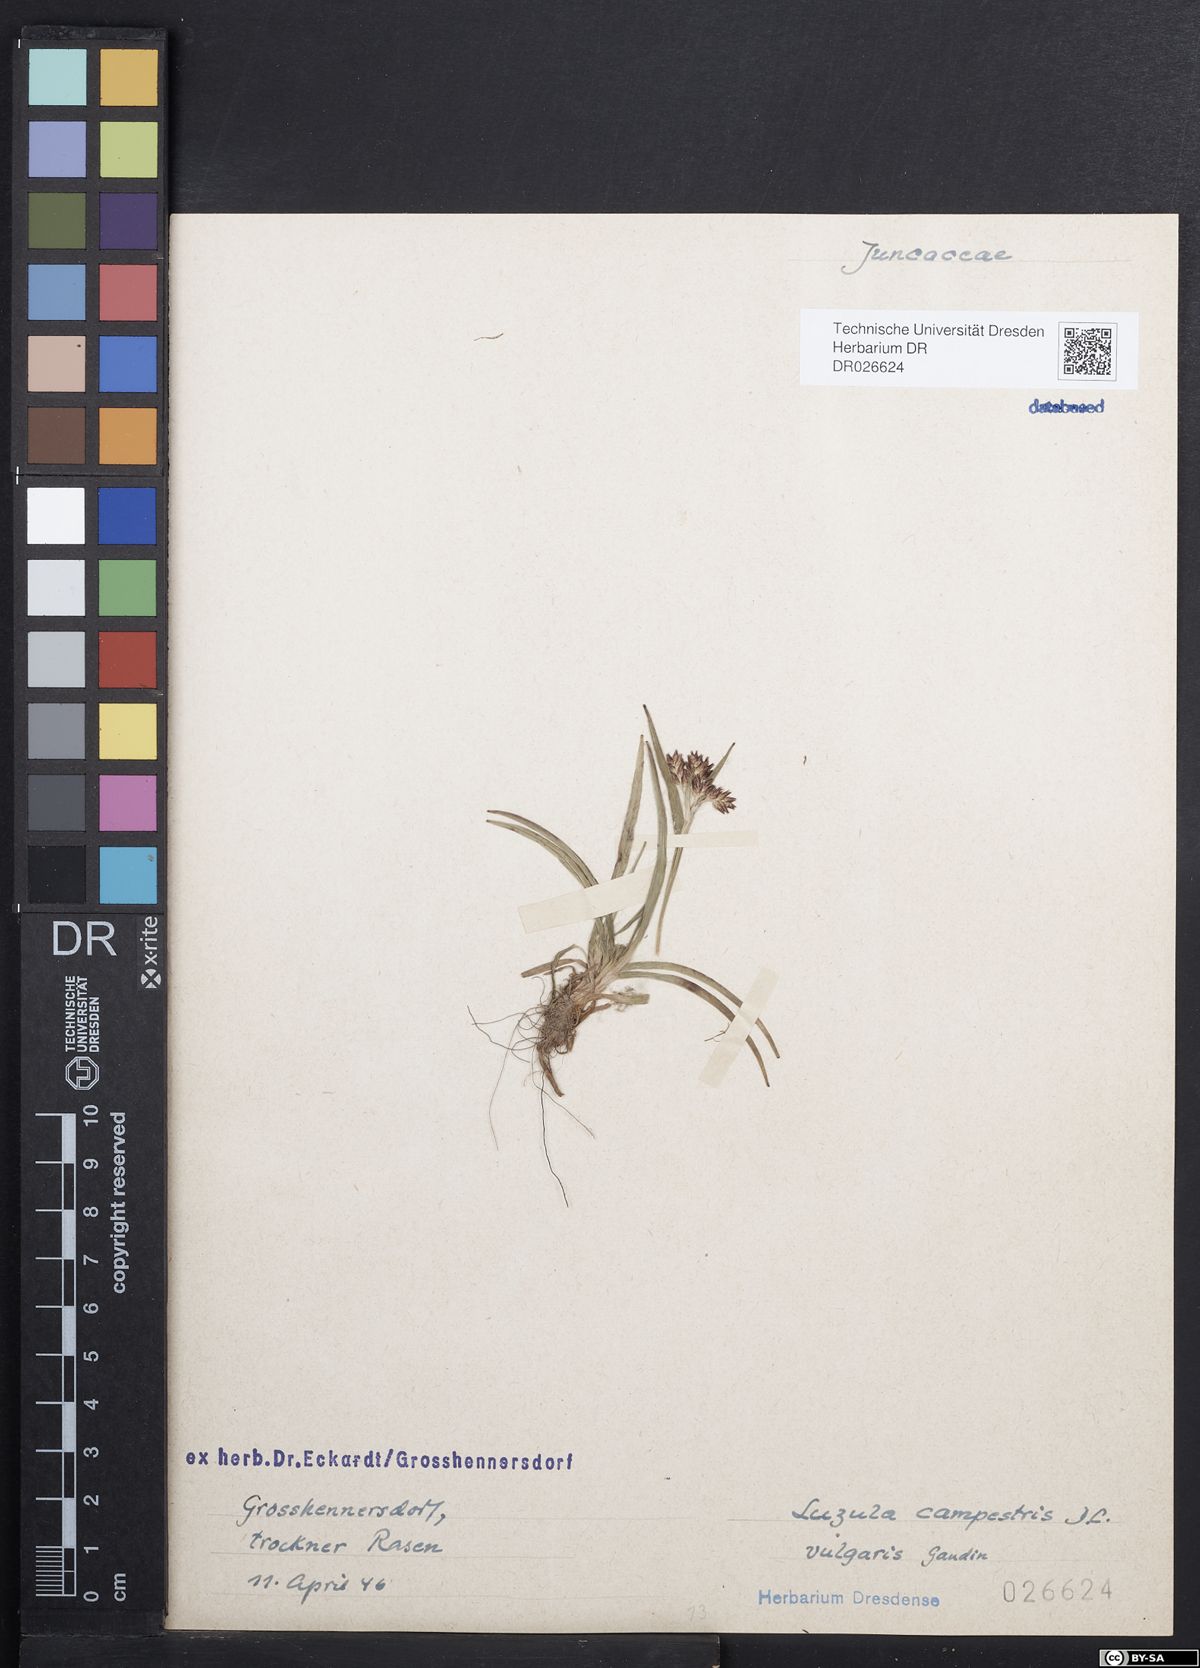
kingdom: Plantae
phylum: Tracheophyta
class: Liliopsida
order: Poales
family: Juncaceae
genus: Luzula
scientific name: Luzula campestris
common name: Field wood-rush
